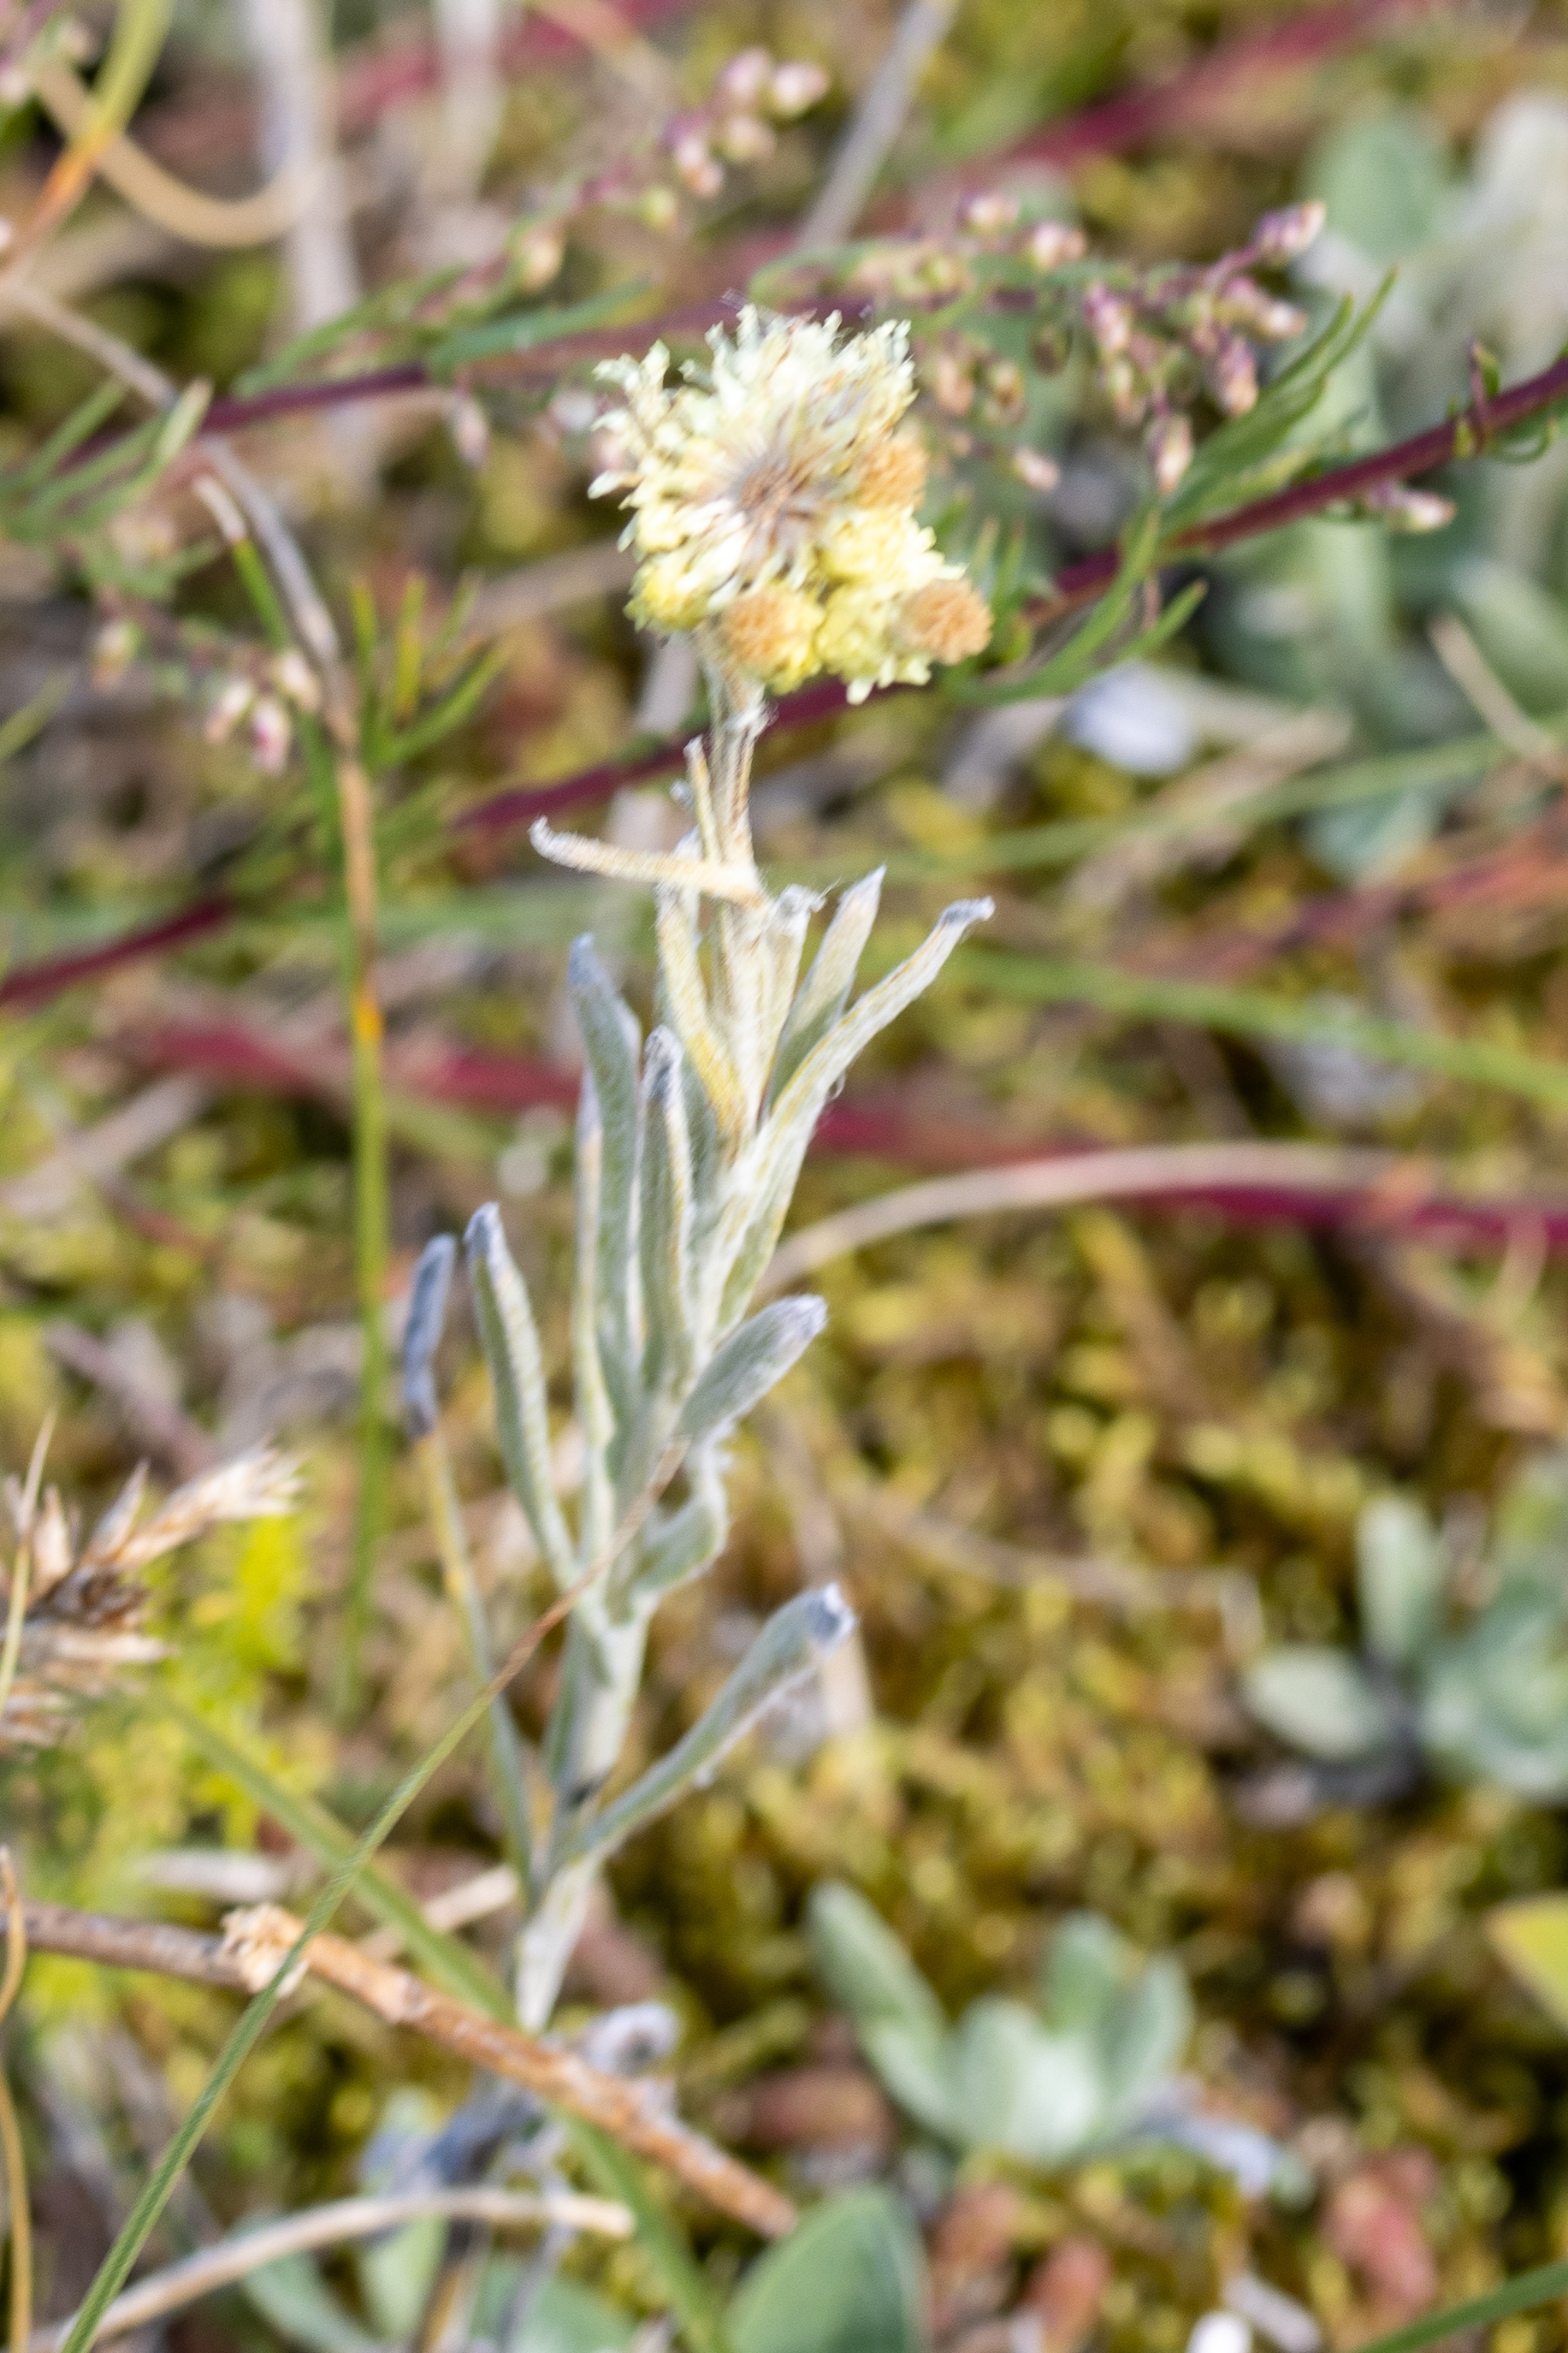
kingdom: Plantae
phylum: Tracheophyta
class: Magnoliopsida
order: Asterales
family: Asteraceae
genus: Helichrysum
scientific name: Helichrysum arenarium
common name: Gul evighedsblomst
